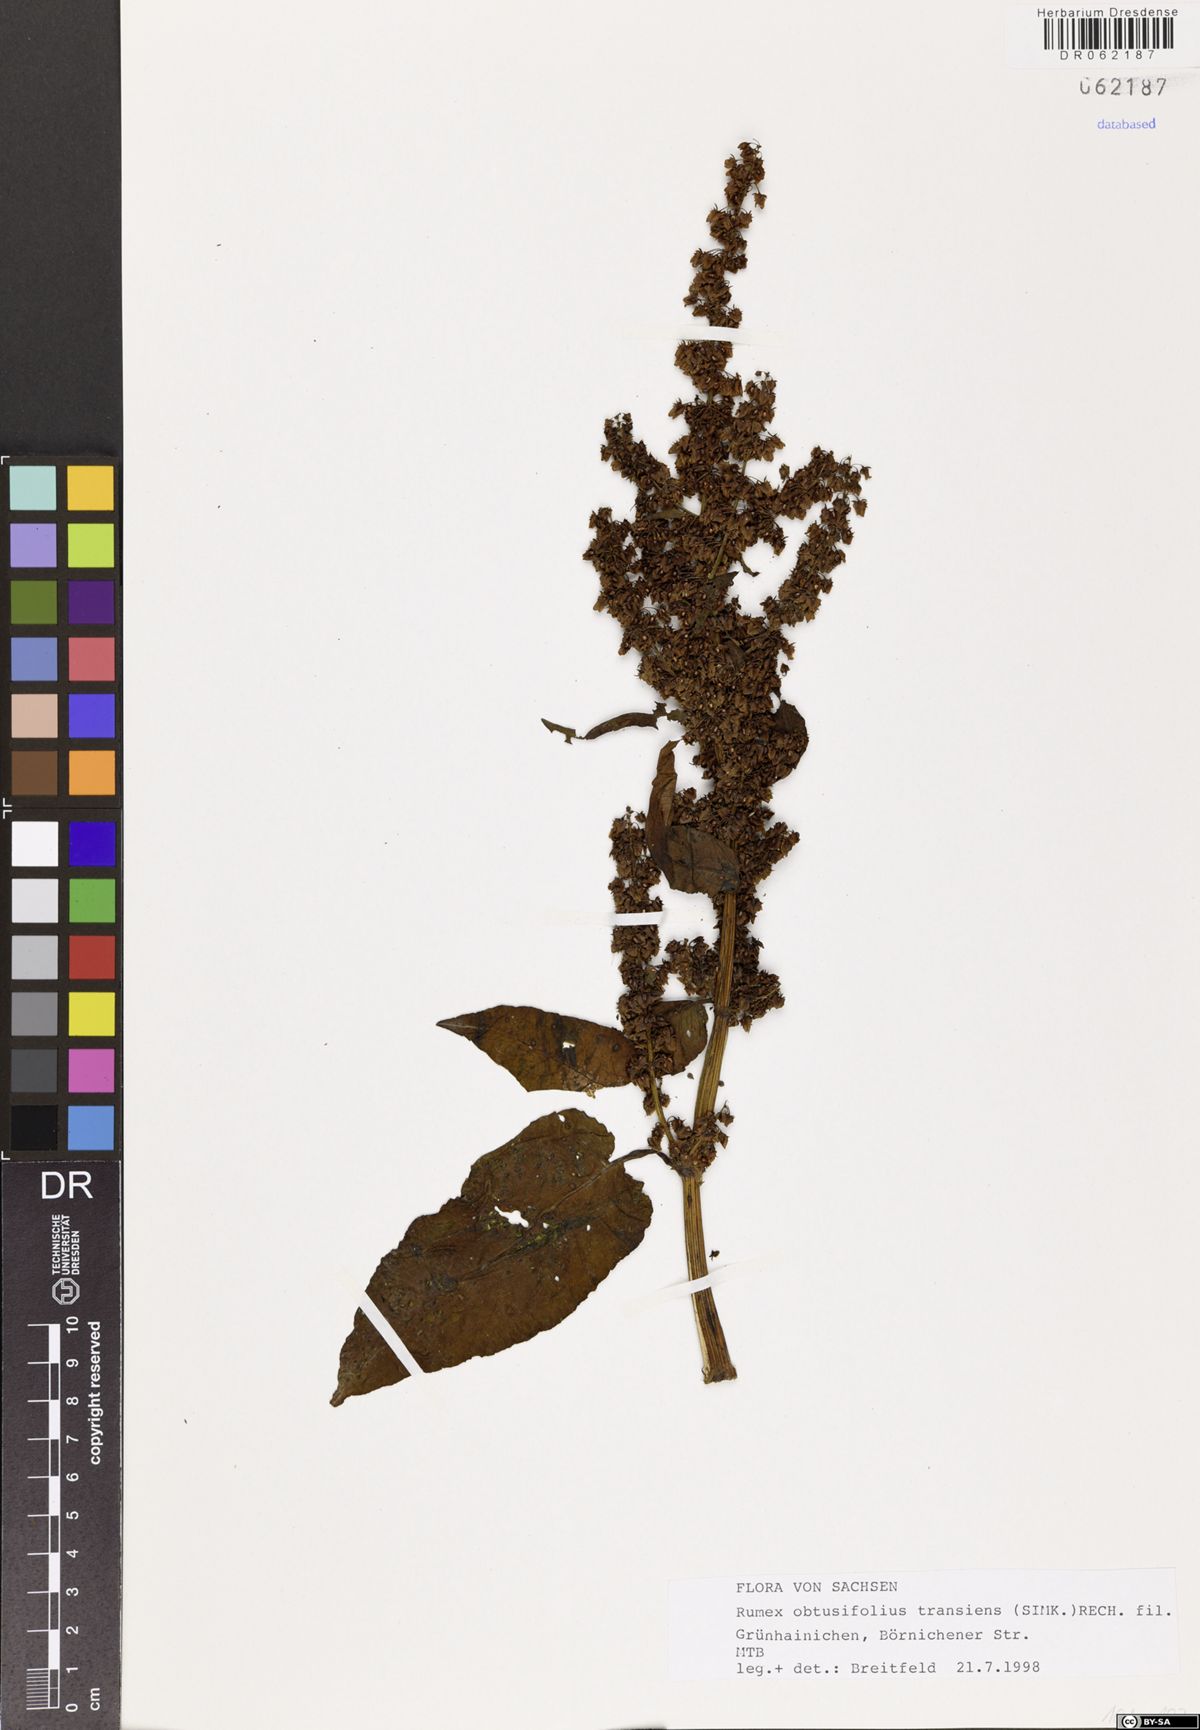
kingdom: Plantae
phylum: Tracheophyta
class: Magnoliopsida
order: Caryophyllales
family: Polygonaceae
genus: Rumex
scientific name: Rumex obtusifolius
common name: Bitter dock
